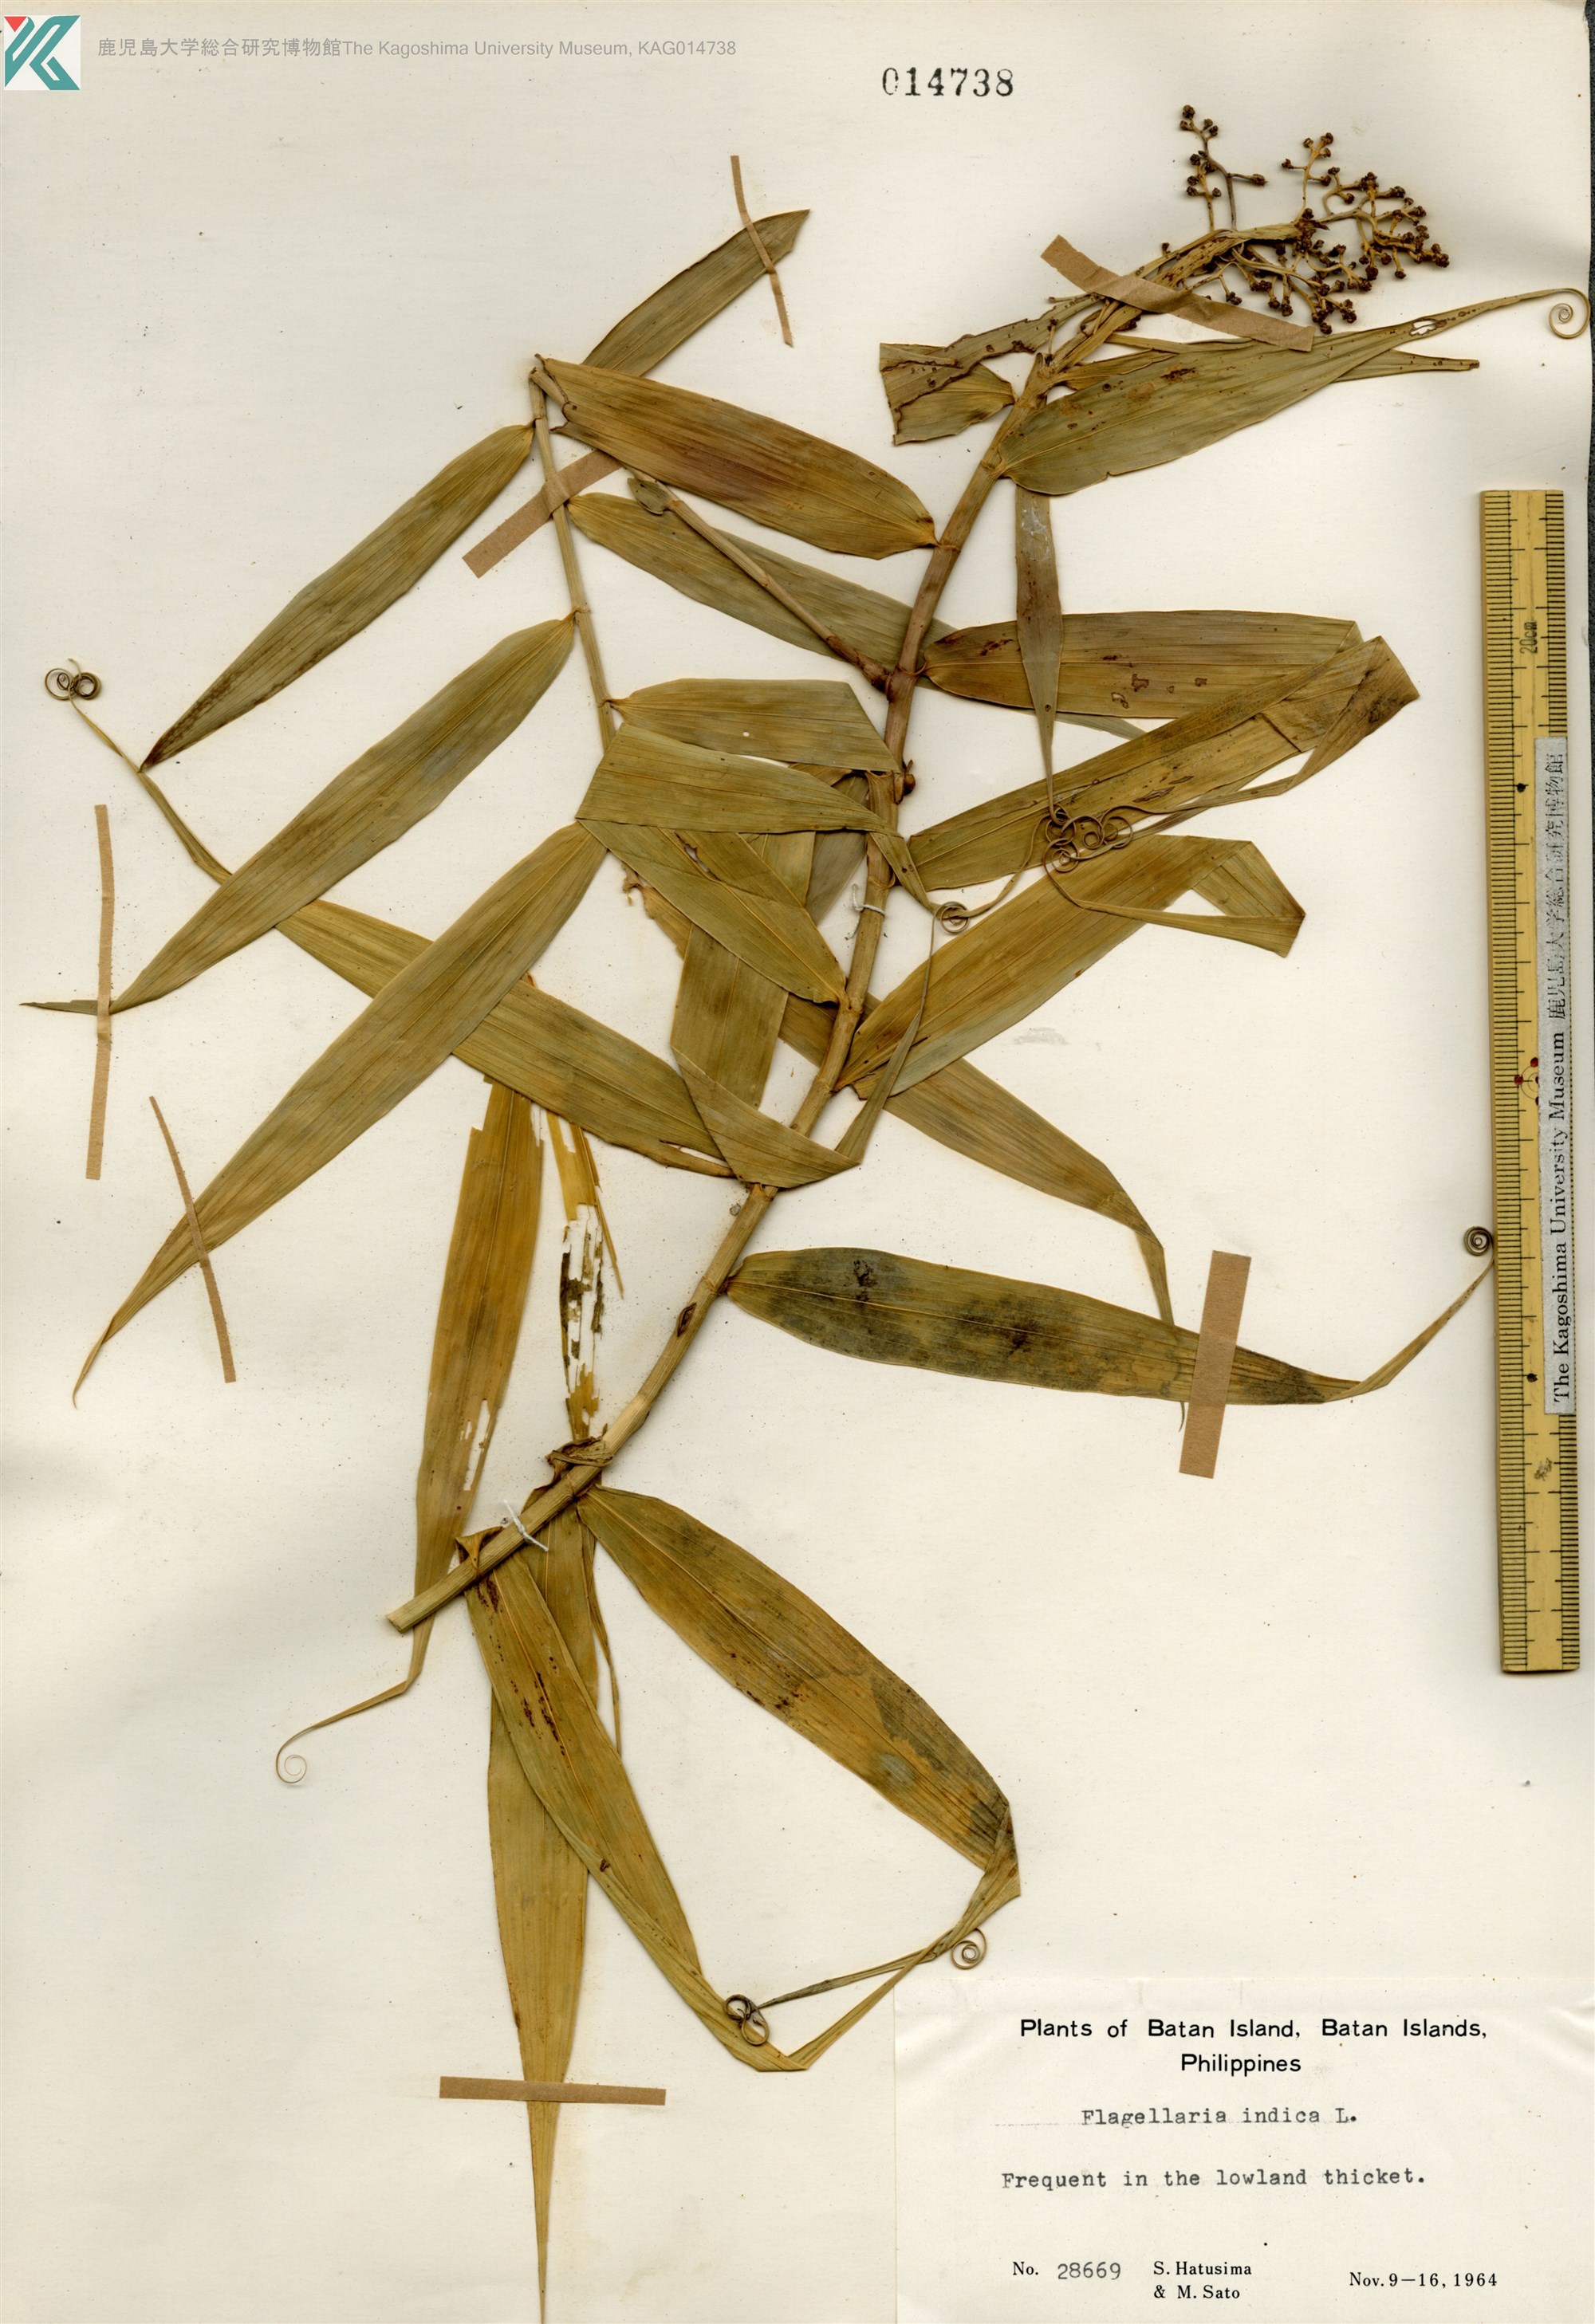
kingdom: Plantae
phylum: Tracheophyta
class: Liliopsida
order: Poales
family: Flagellariaceae
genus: Flagellaria
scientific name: Flagellaria indica
